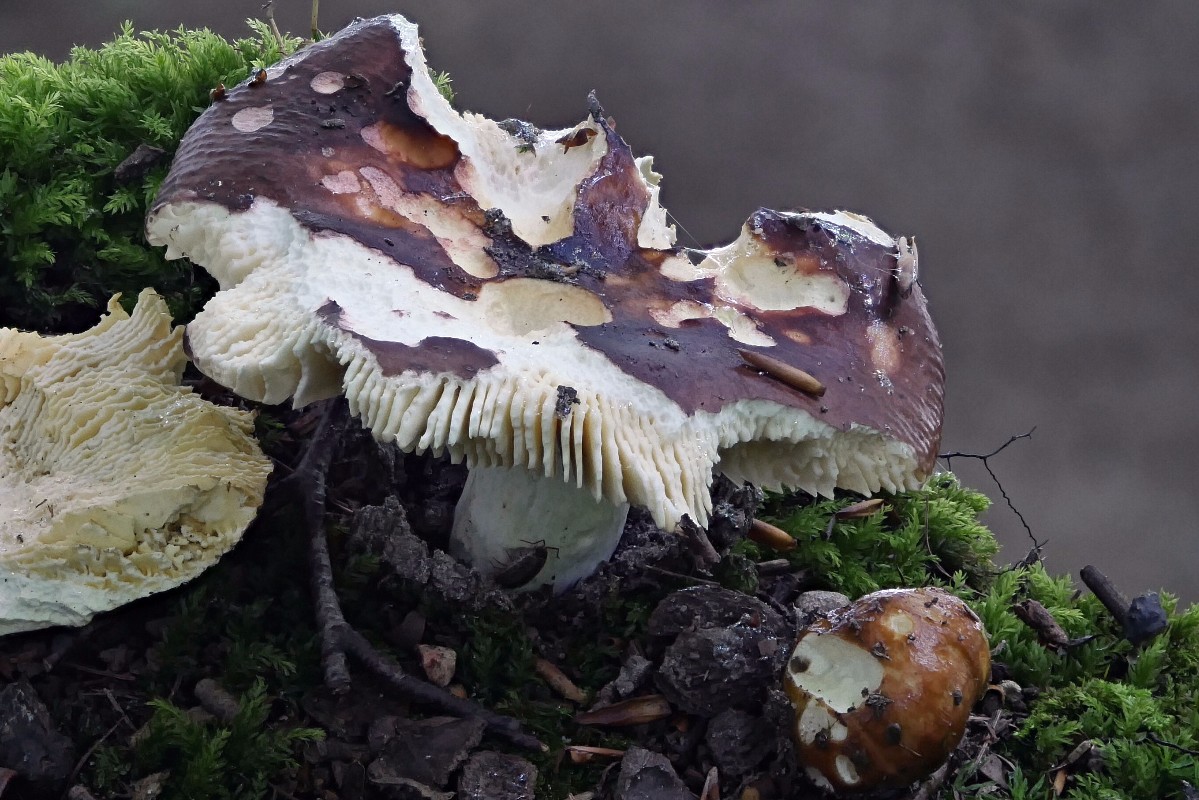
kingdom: Fungi
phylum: Basidiomycota
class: Agaricomycetes
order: Russulales
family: Russulaceae
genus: Russula
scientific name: Russula sericatula
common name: brunrød skørhat
